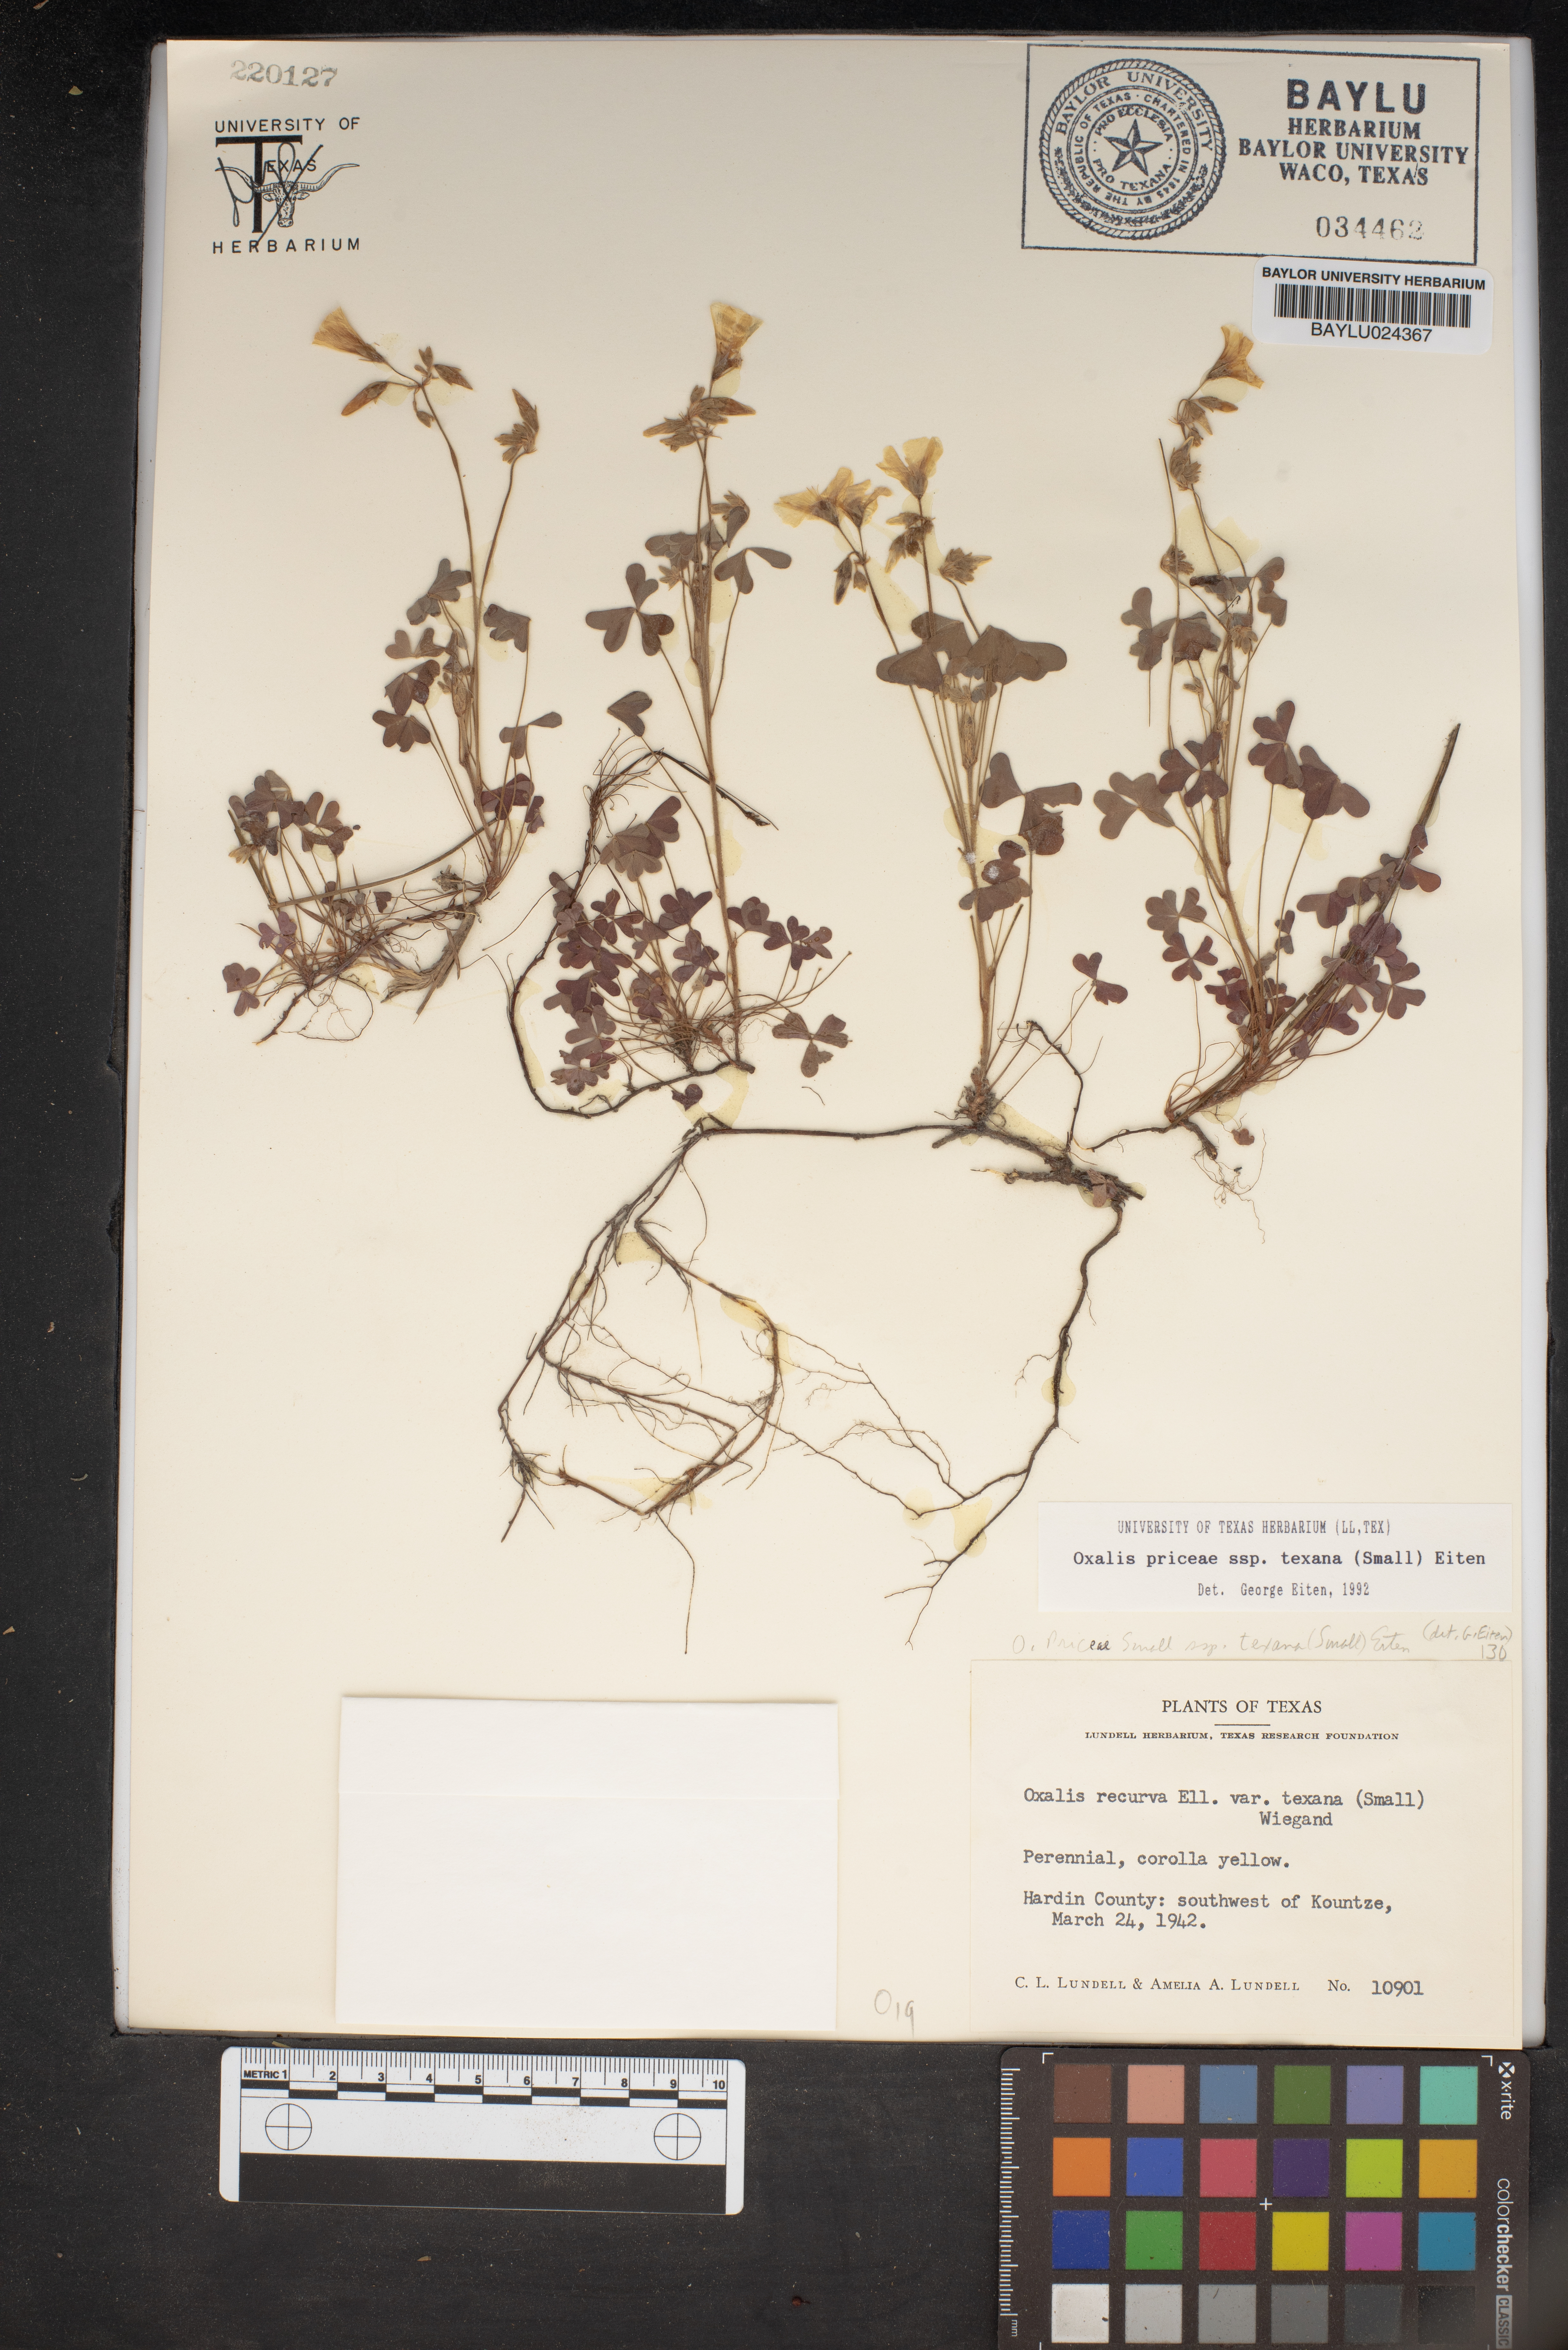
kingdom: Plantae
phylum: Tracheophyta
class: Magnoliopsida
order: Oxalidales
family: Oxalidaceae
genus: Oxalis
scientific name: Oxalis florida
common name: Flowering yellow woodsorrel
